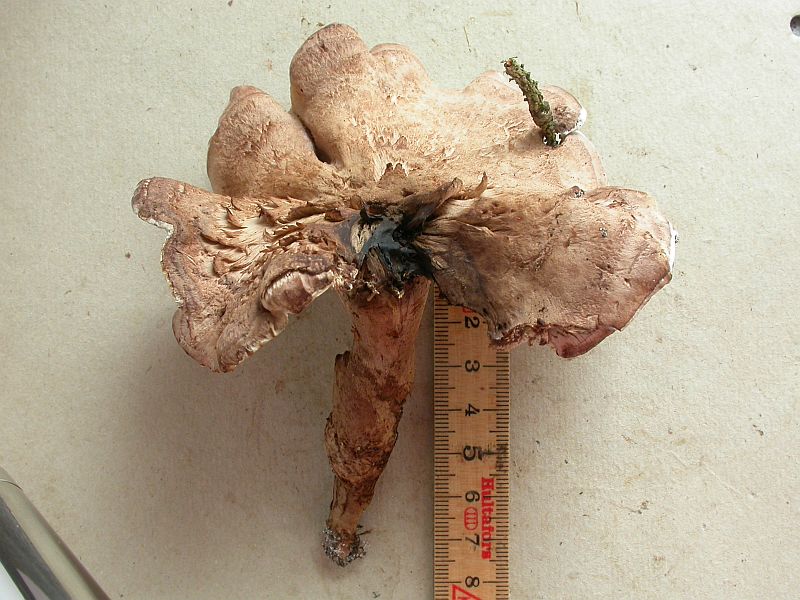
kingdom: Fungi
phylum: Basidiomycota
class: Agaricomycetes
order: Thelephorales
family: Thelephoraceae
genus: Phellodon
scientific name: Phellodon violascens
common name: violetbrun duftpigsvamp
